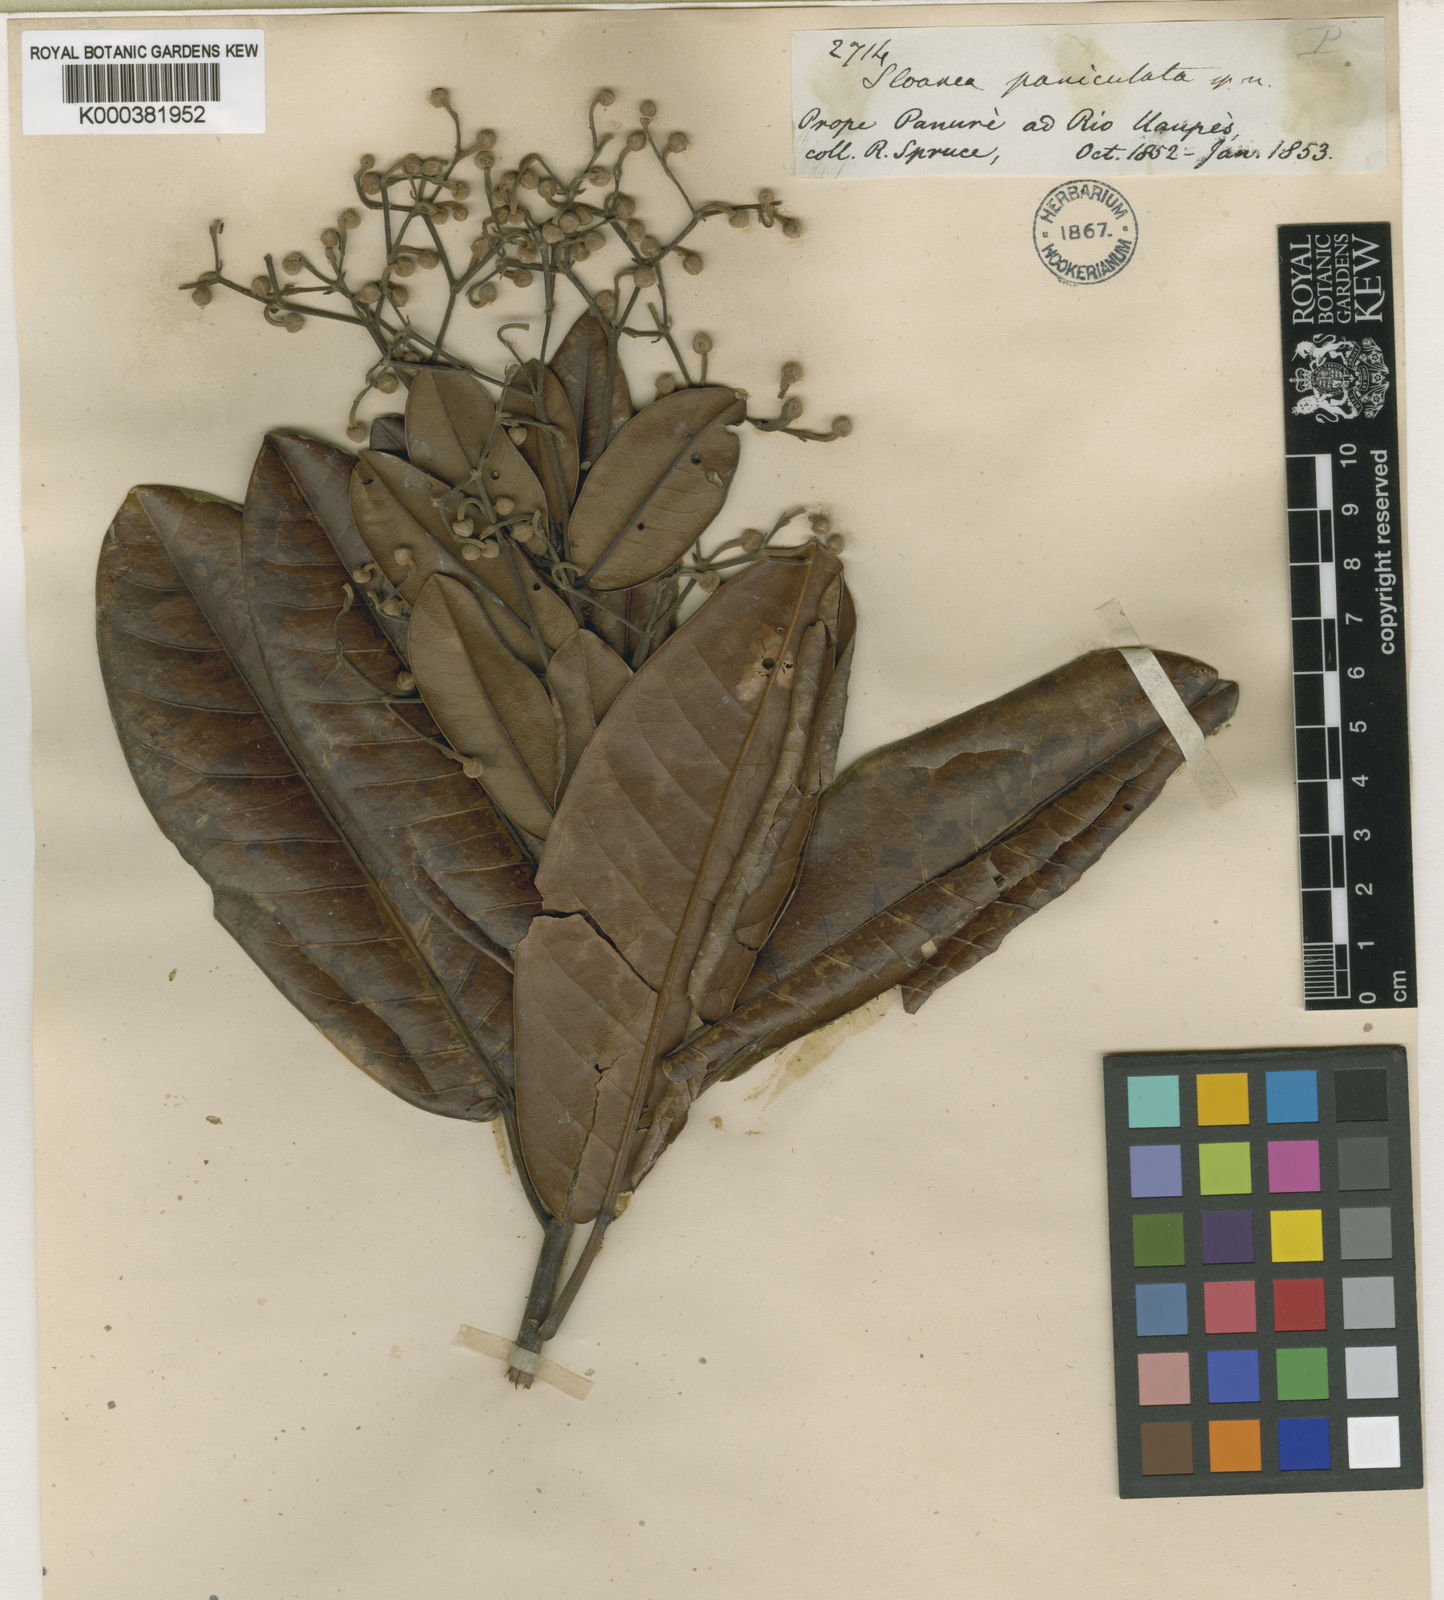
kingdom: Plantae
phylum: Tracheophyta
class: Magnoliopsida
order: Oxalidales
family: Elaeocarpaceae
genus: Sloanea
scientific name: Sloanea floribunda
